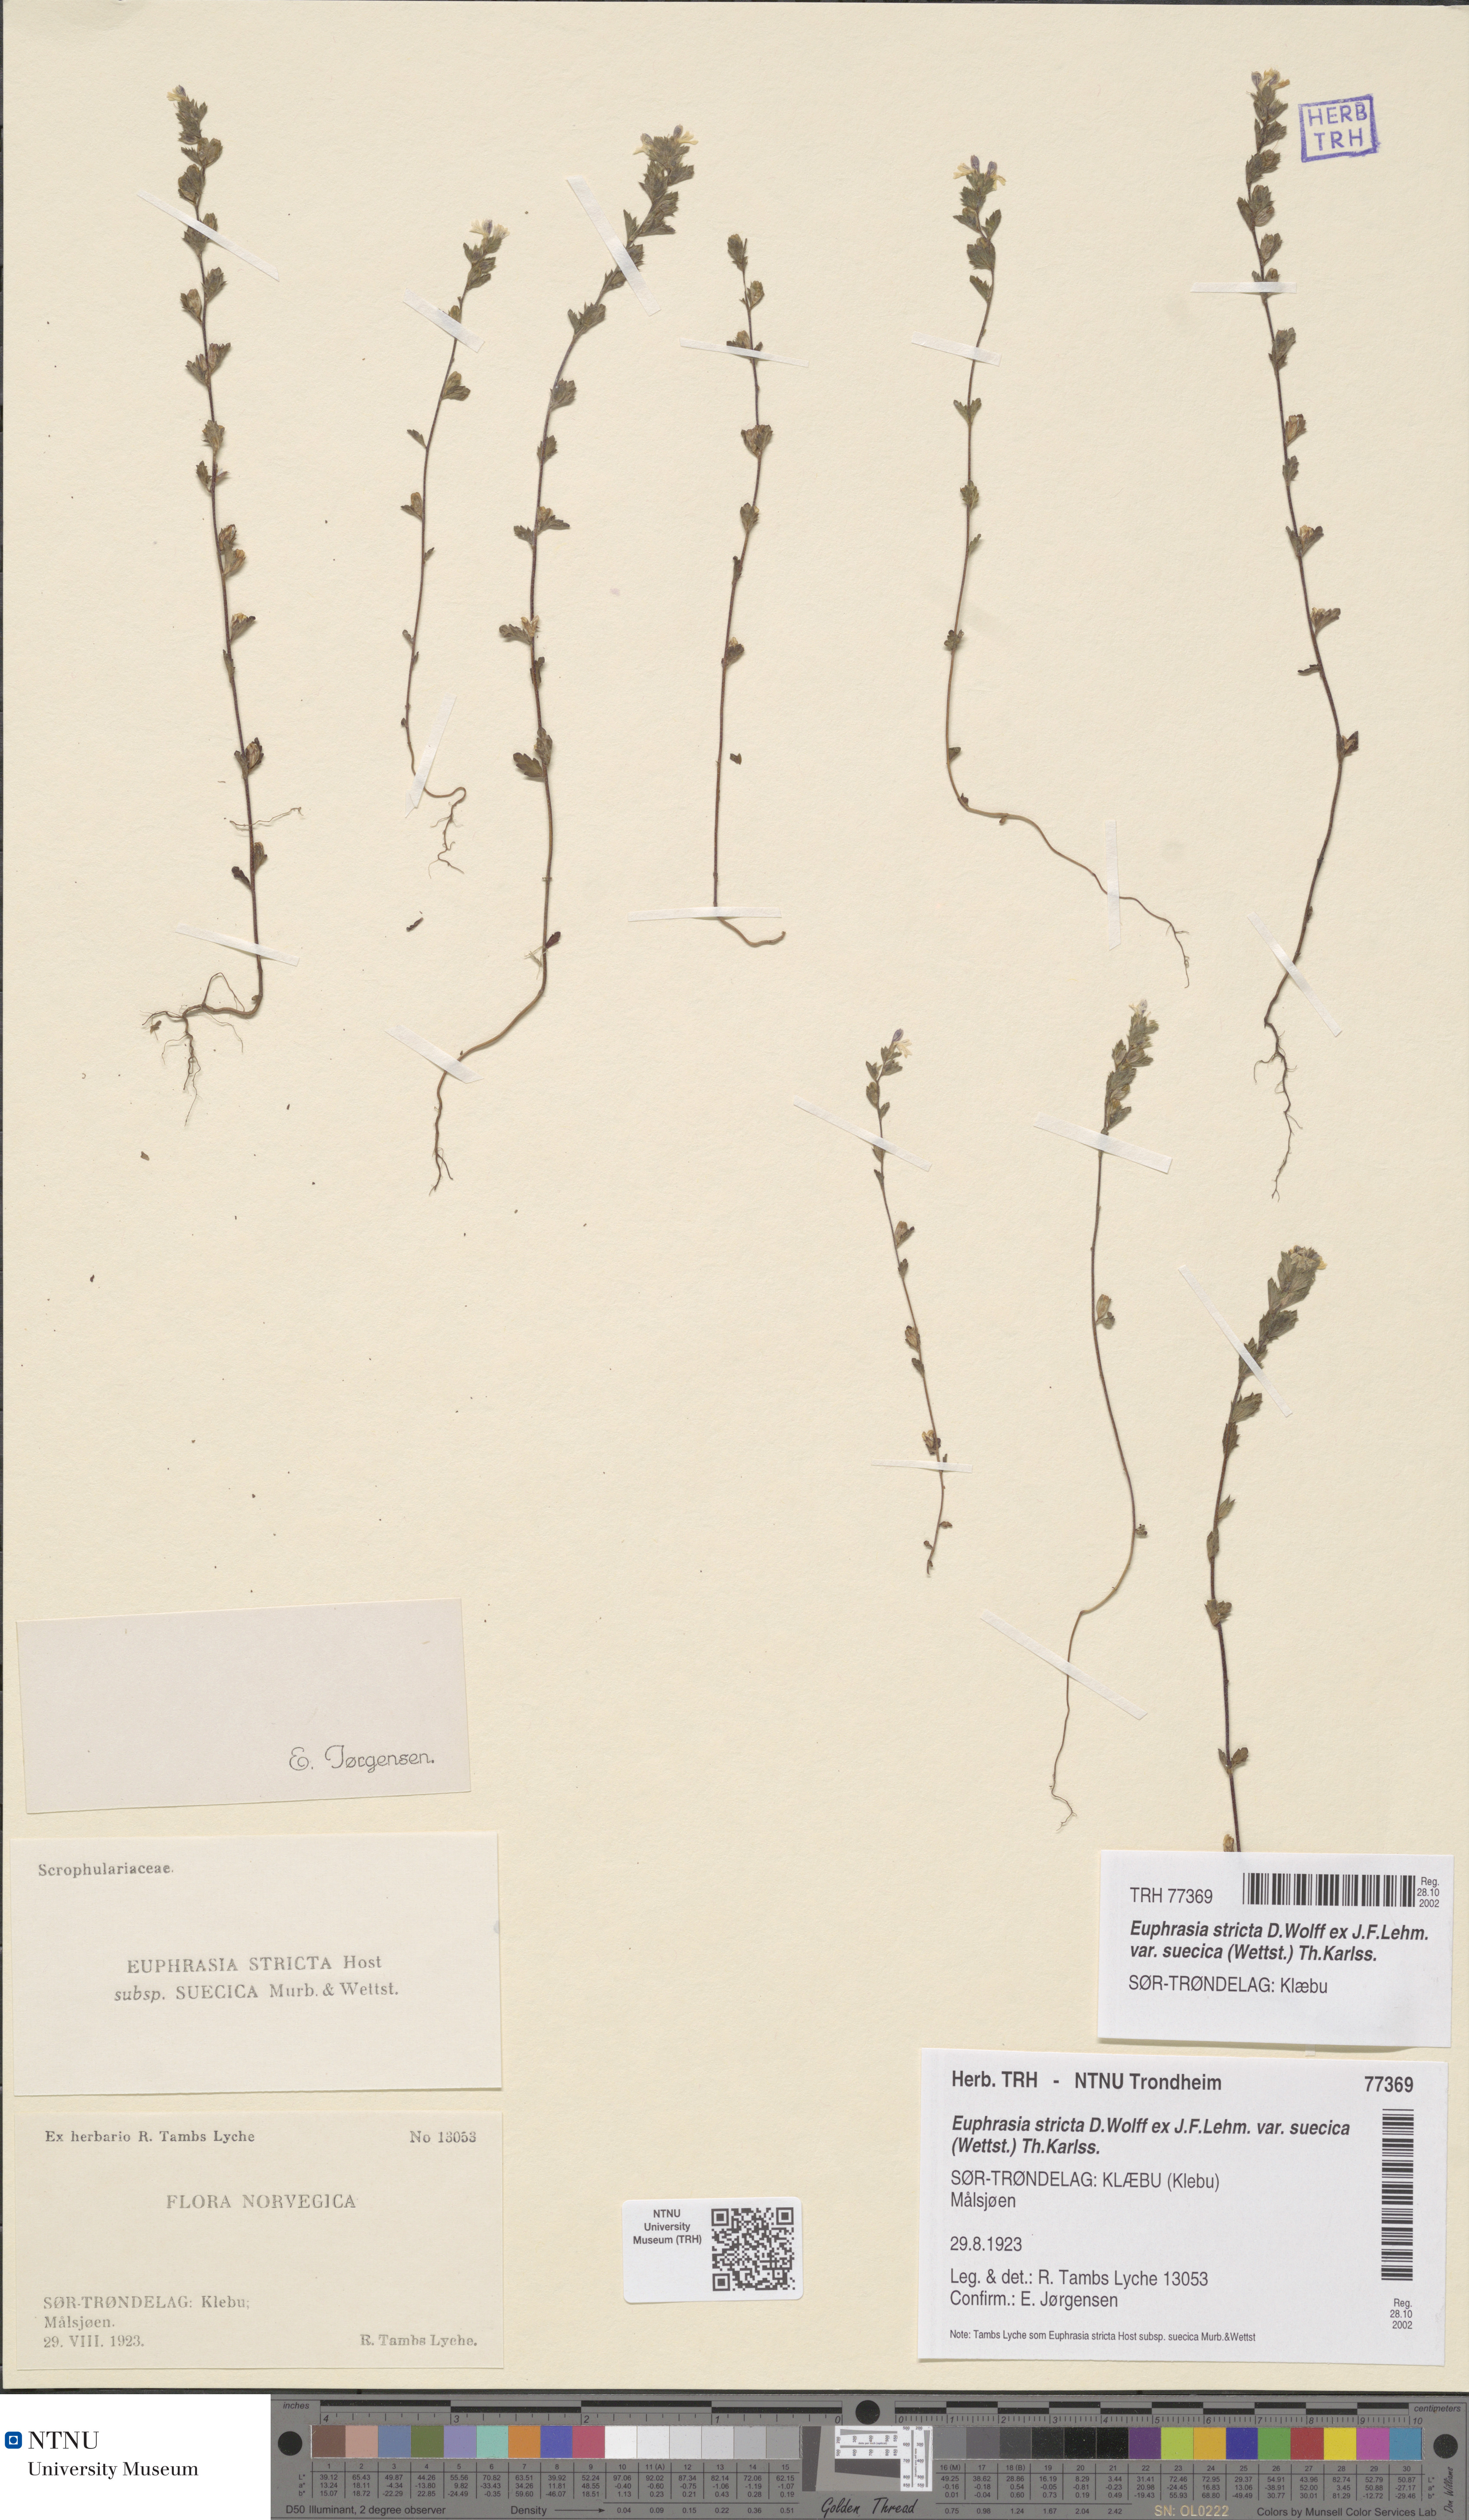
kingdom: Plantae
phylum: Tracheophyta
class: Magnoliopsida
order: Lamiales
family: Orobanchaceae
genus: Euphrasia
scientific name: Euphrasia stricta
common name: Drug eyebright
